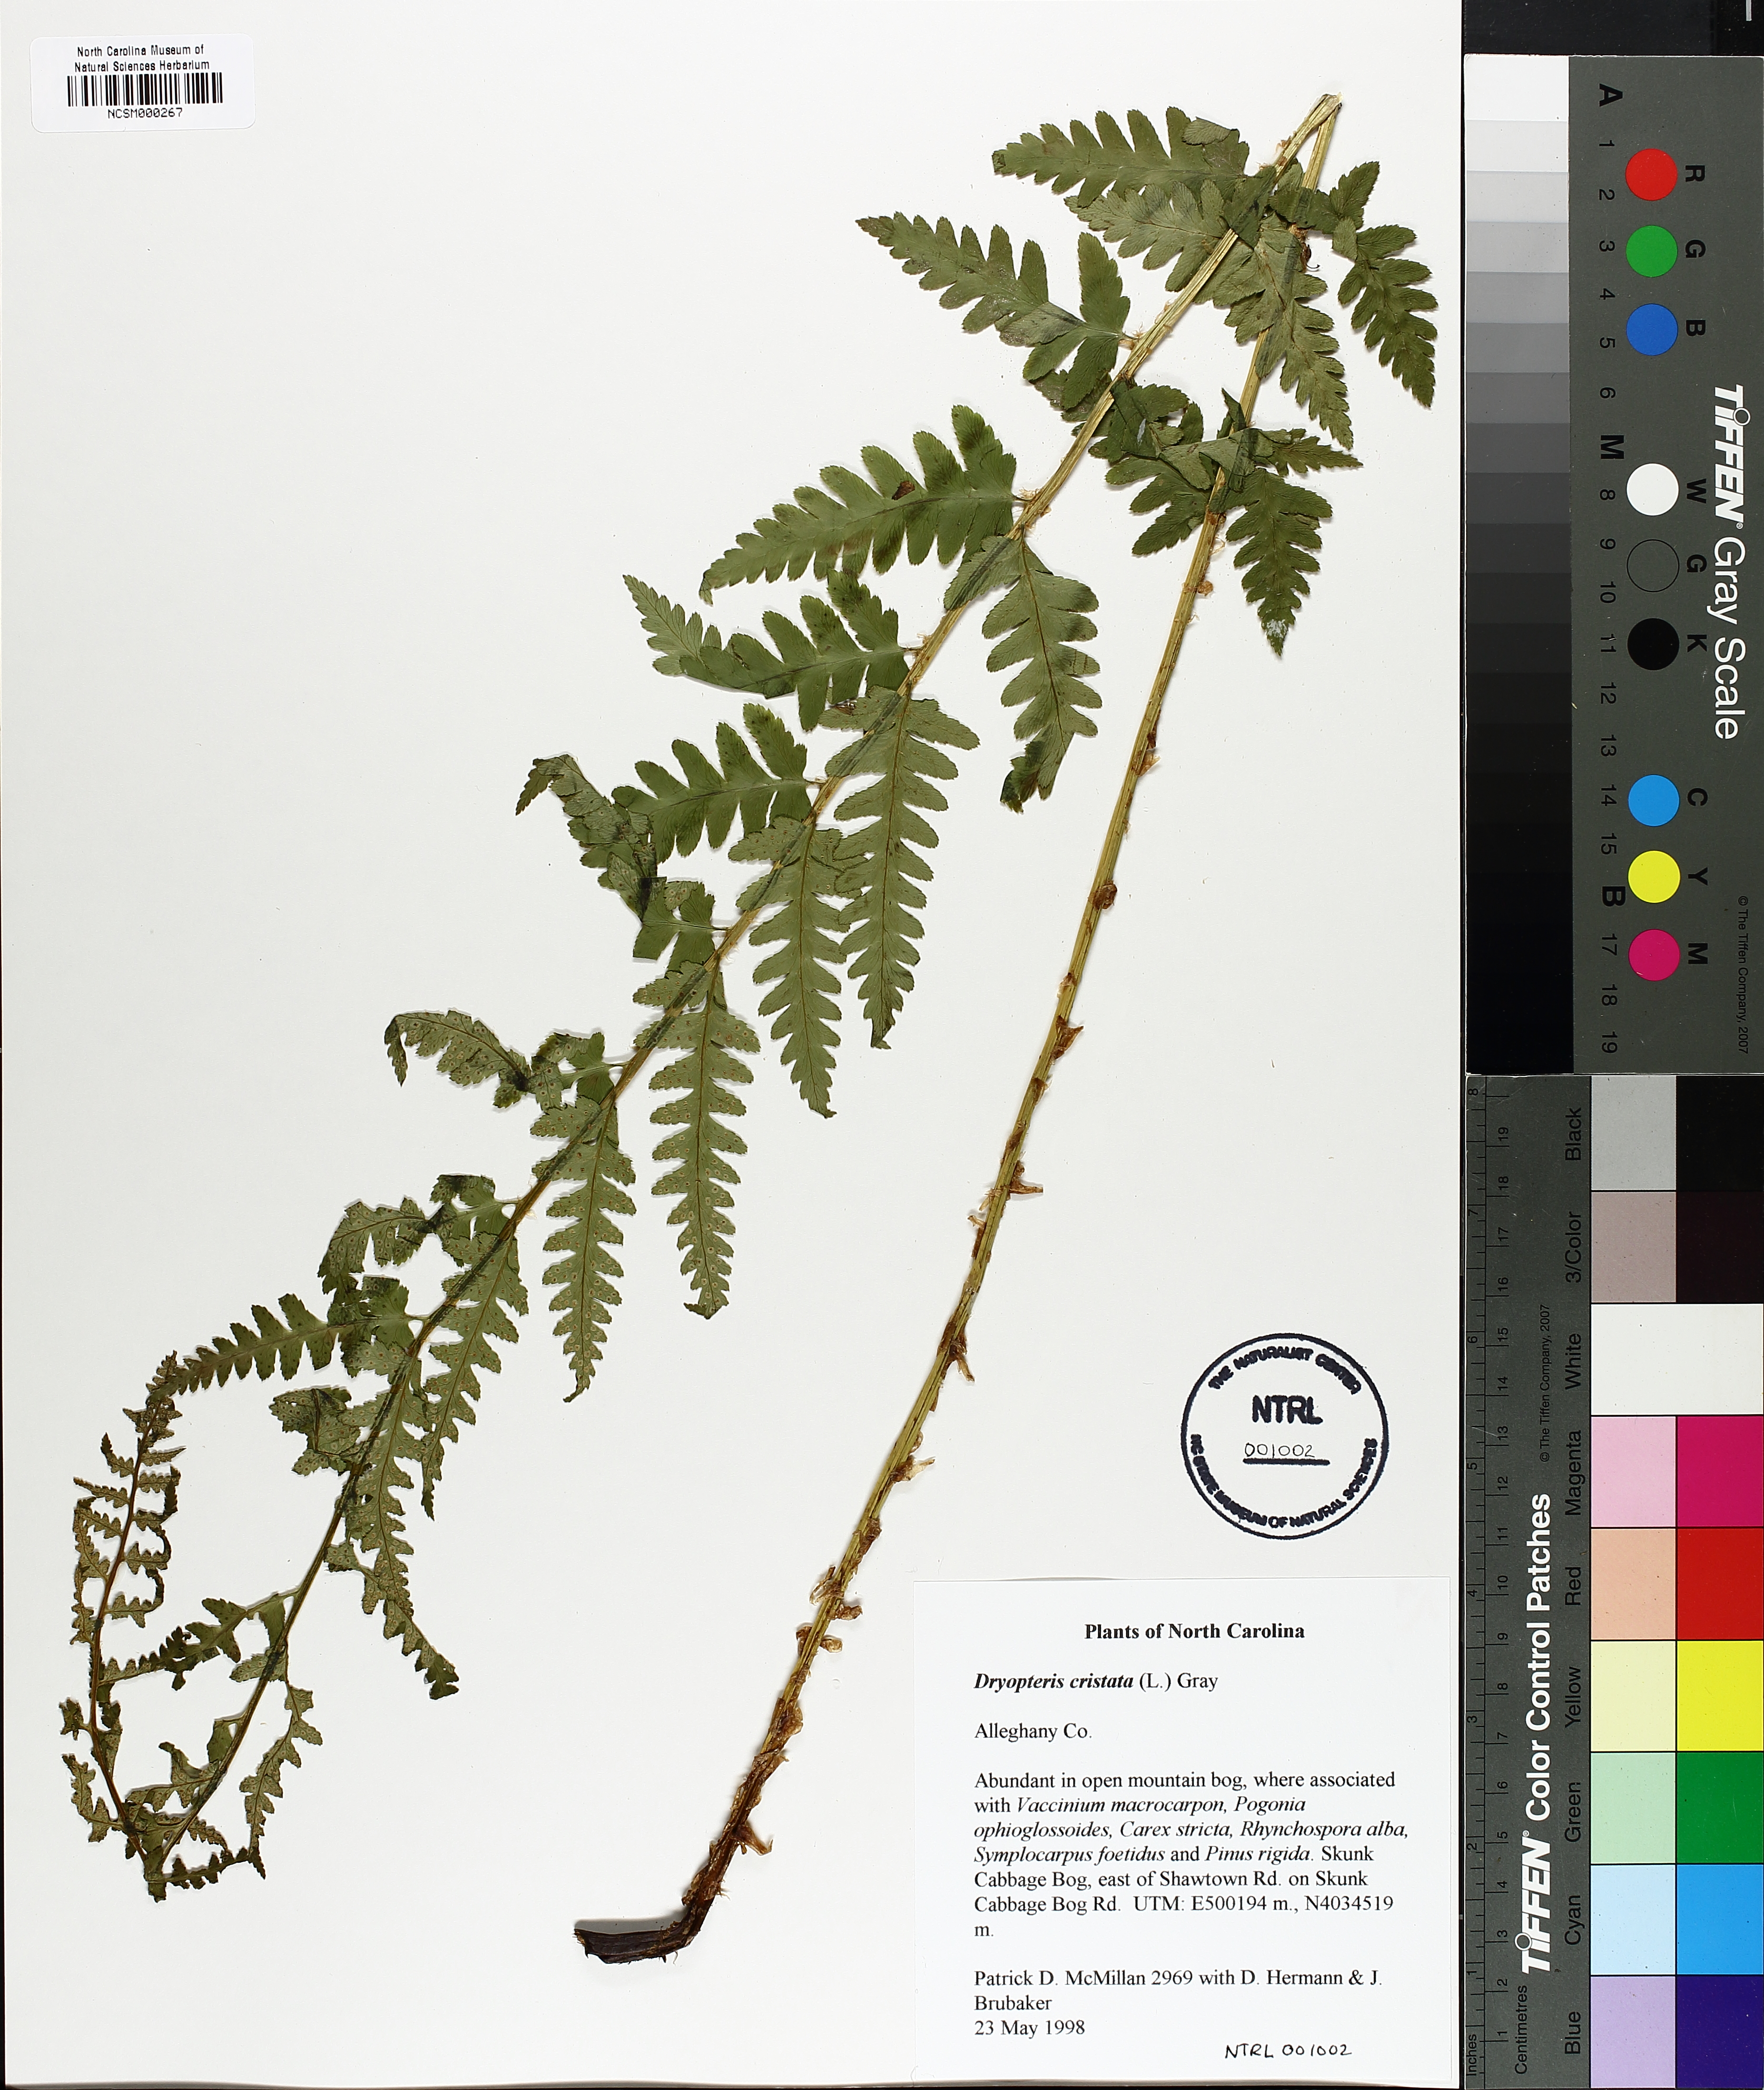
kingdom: Plantae
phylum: Tracheophyta
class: Polypodiopsida
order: Polypodiales
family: Dryopteridaceae
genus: Dryopteris
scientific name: Dryopteris cristata
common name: Crested wood fern
